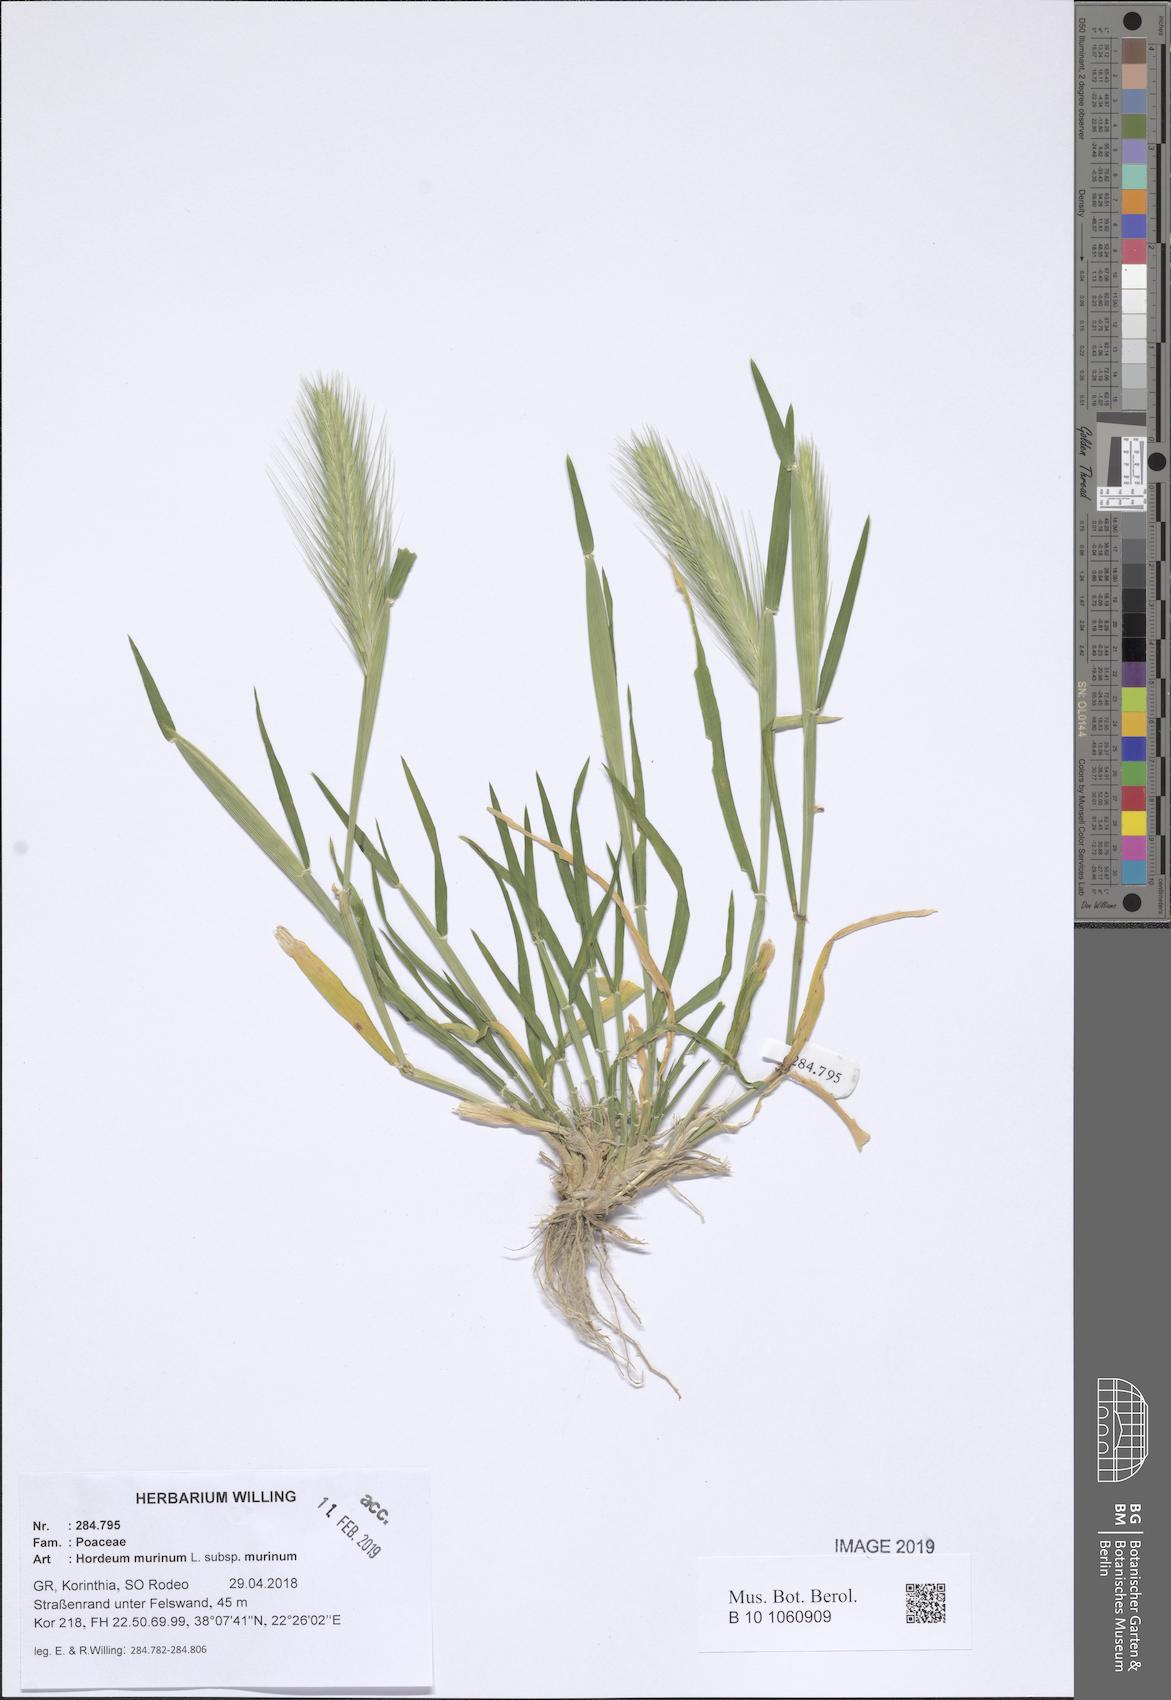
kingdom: Plantae
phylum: Tracheophyta
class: Liliopsida
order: Poales
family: Poaceae
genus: Hordeum
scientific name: Hordeum murinum
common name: Wall barley
